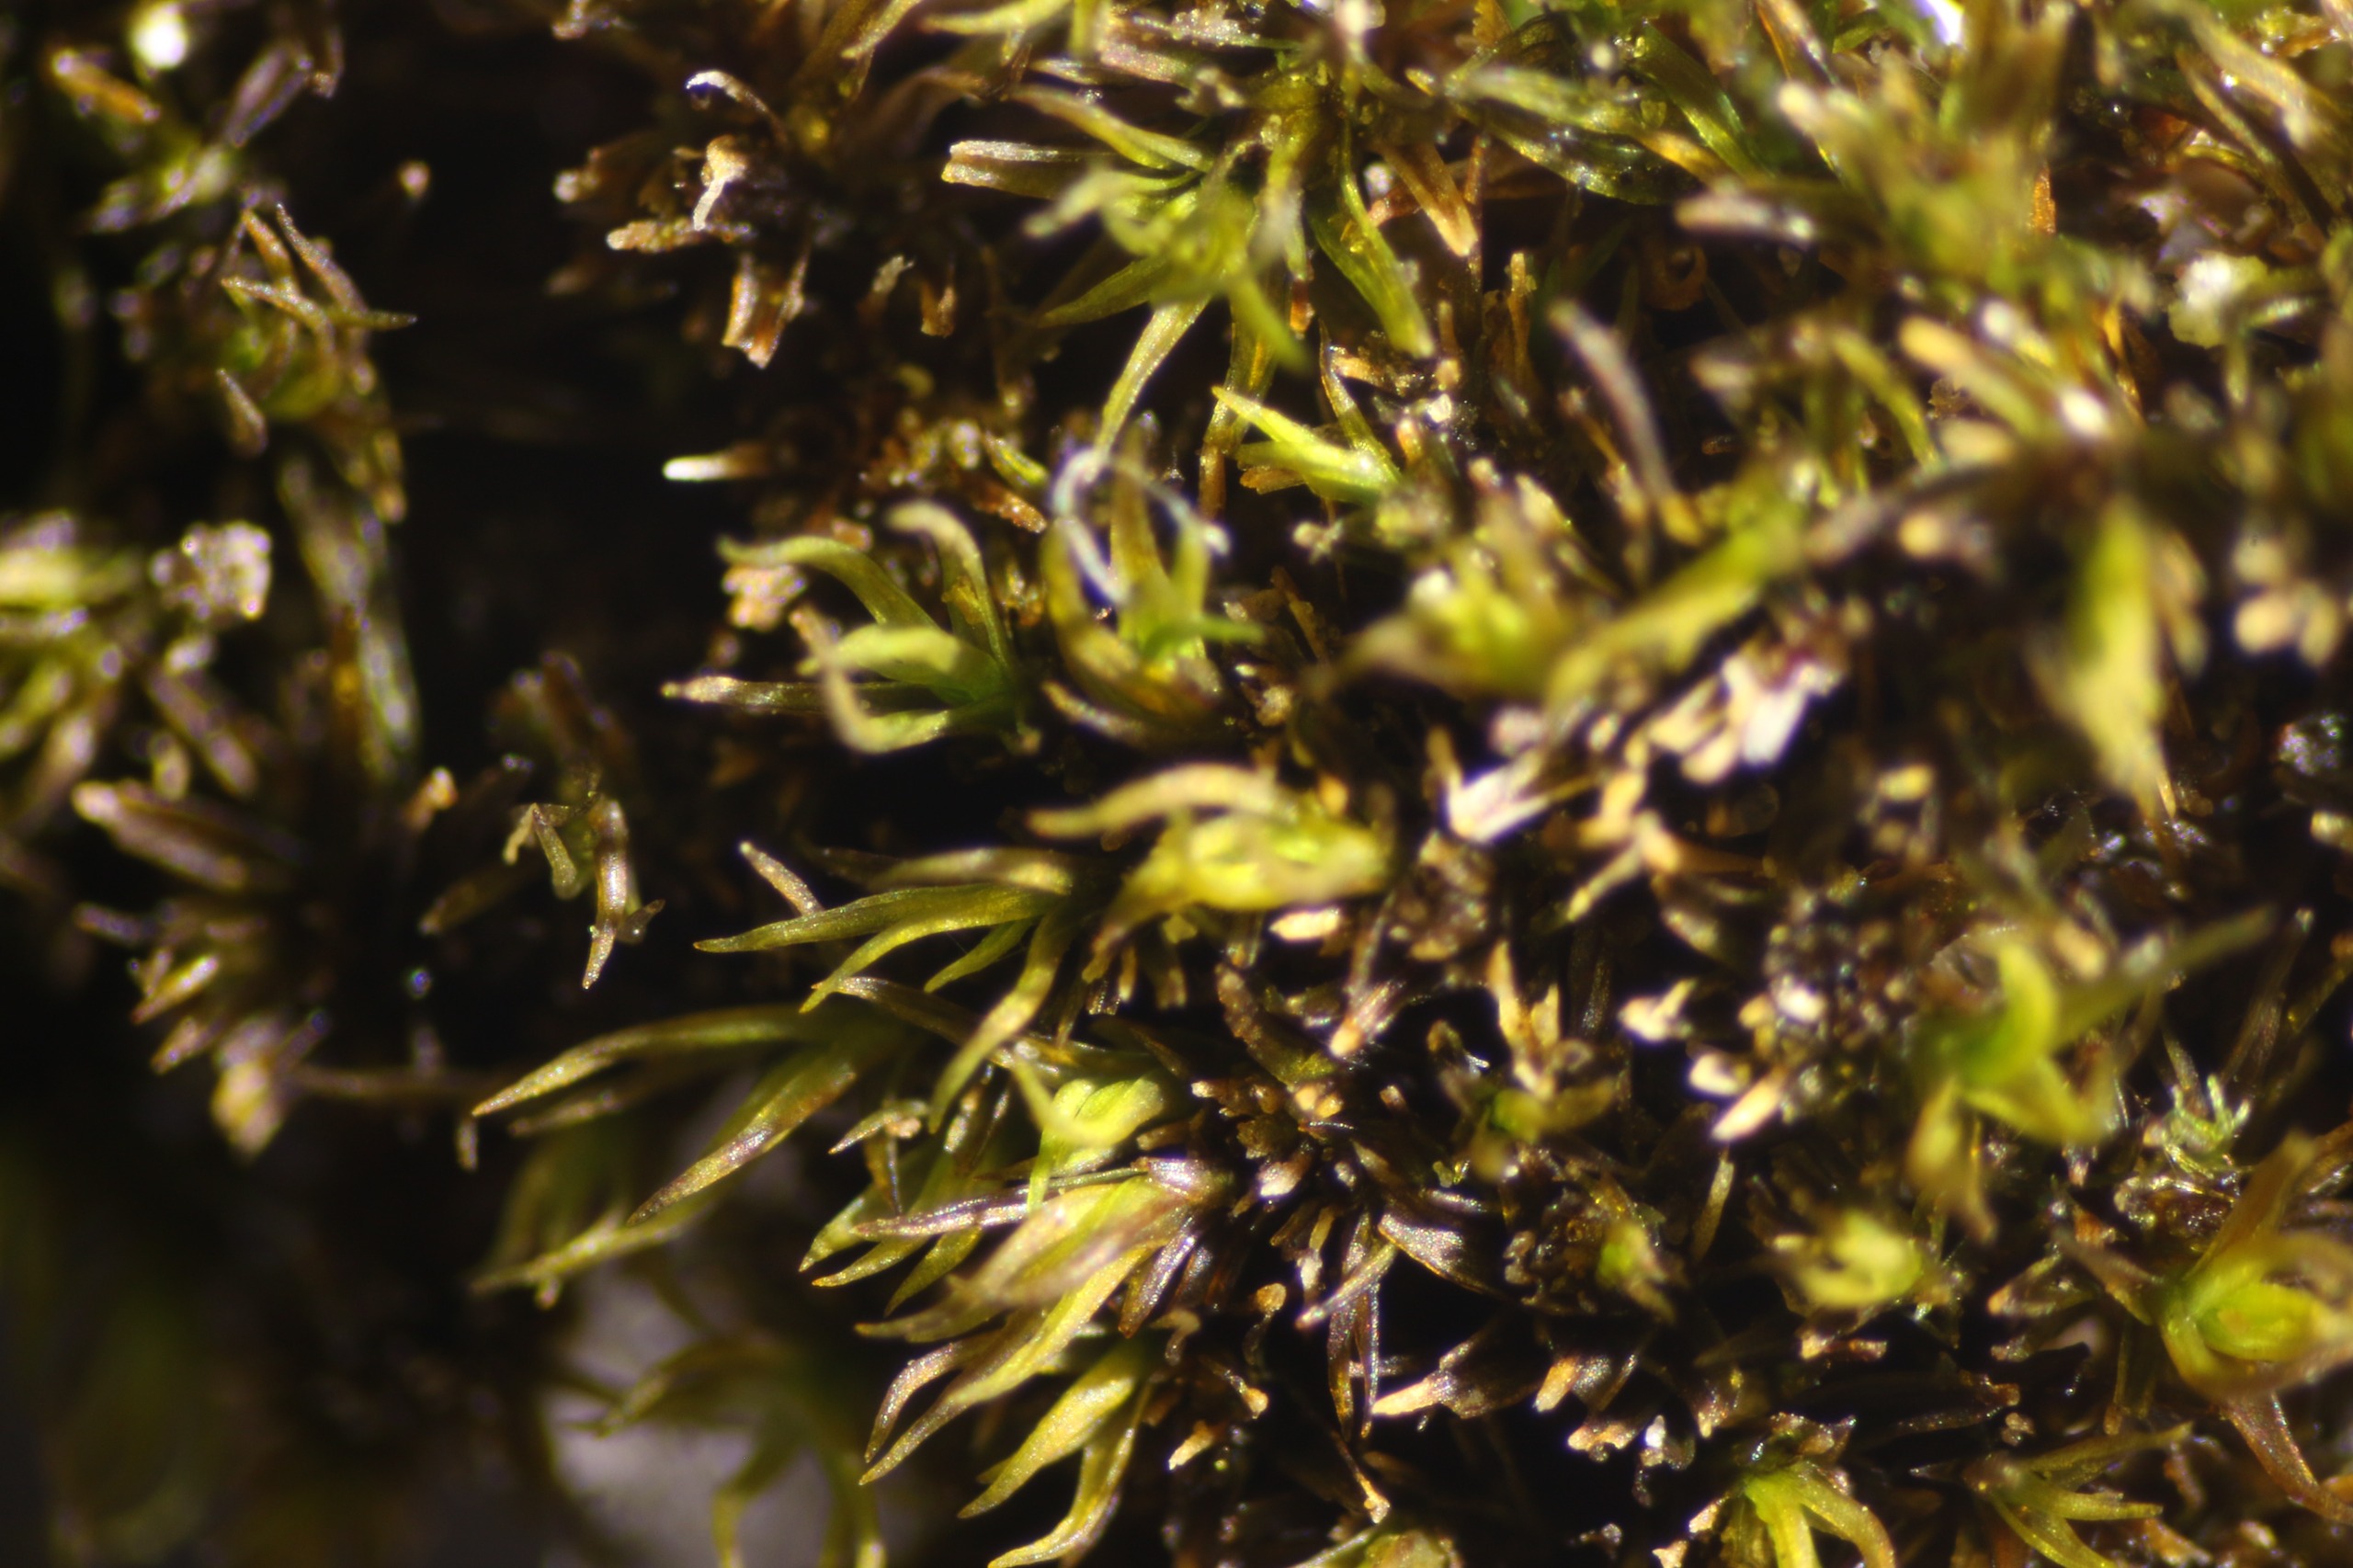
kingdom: Plantae
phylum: Bryophyta
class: Bryopsida
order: Pottiales
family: Pottiaceae
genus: Didymodon
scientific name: Didymodon rigidulus
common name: Stiv kalktuemos
